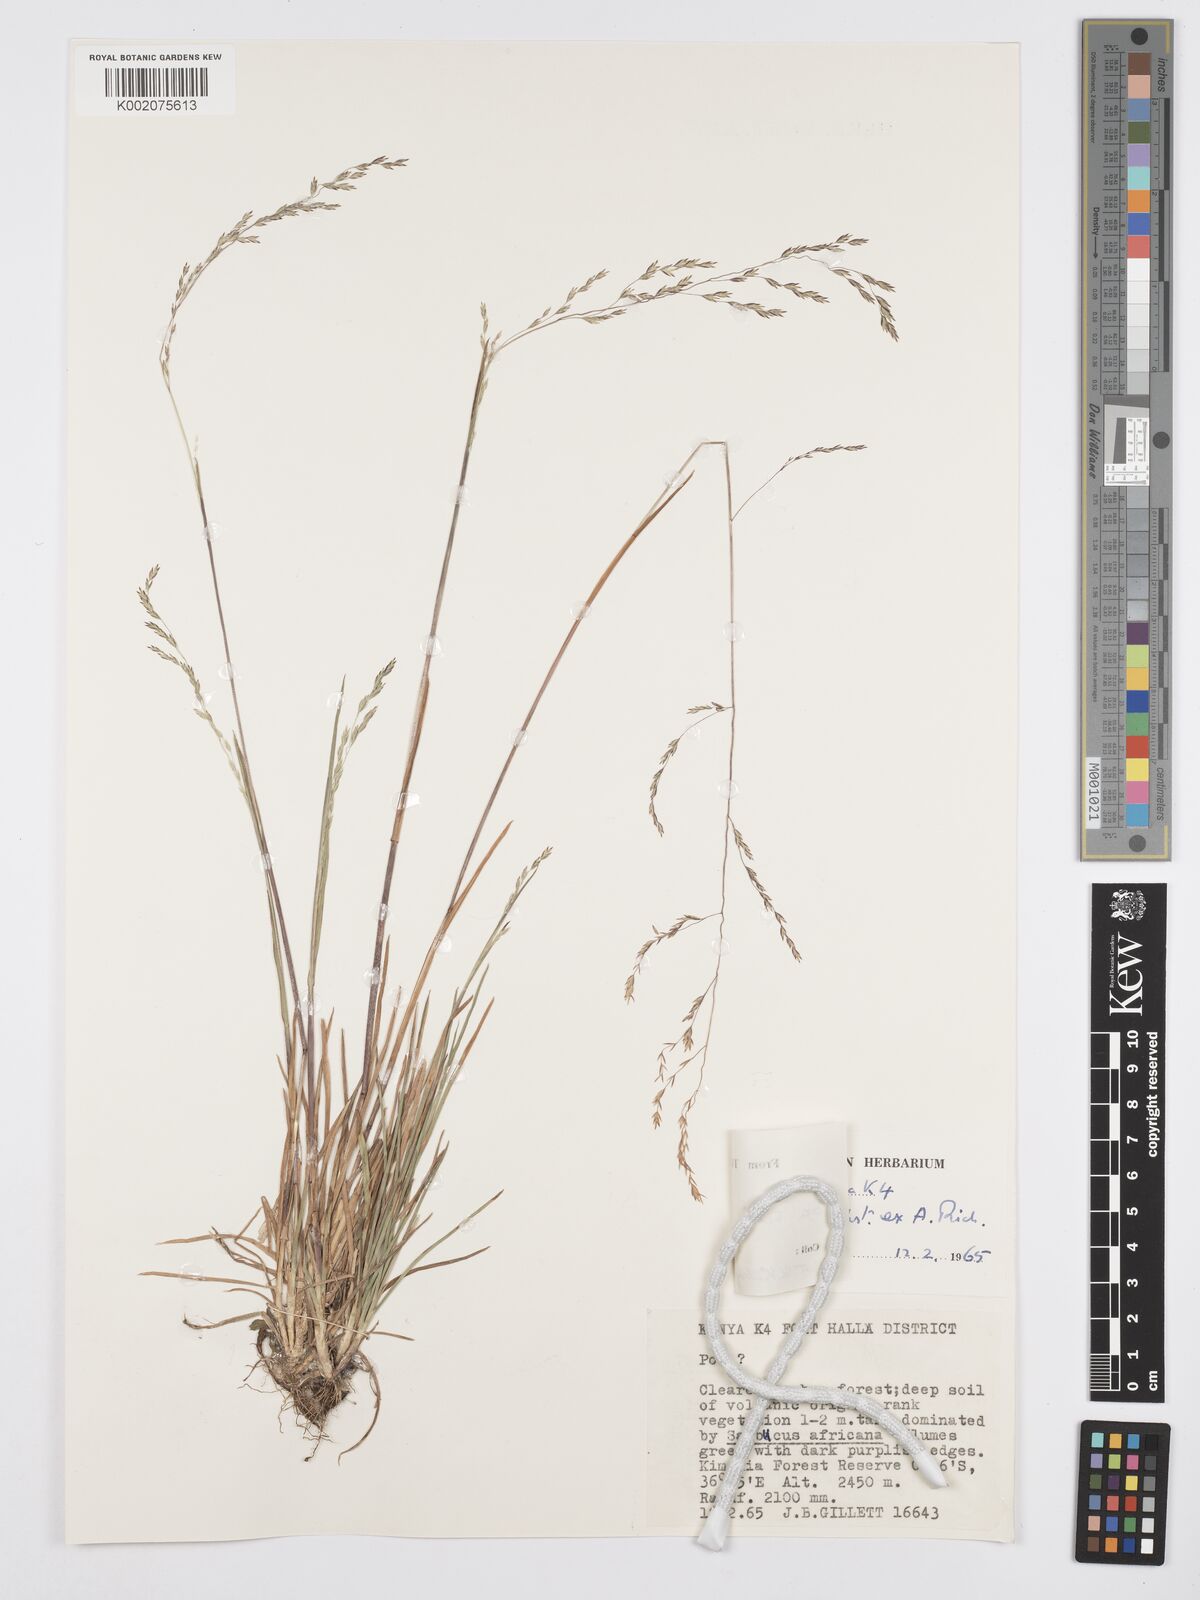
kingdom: Plantae
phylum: Tracheophyta
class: Liliopsida
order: Poales
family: Poaceae
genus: Poa
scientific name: Poa schimperiana
